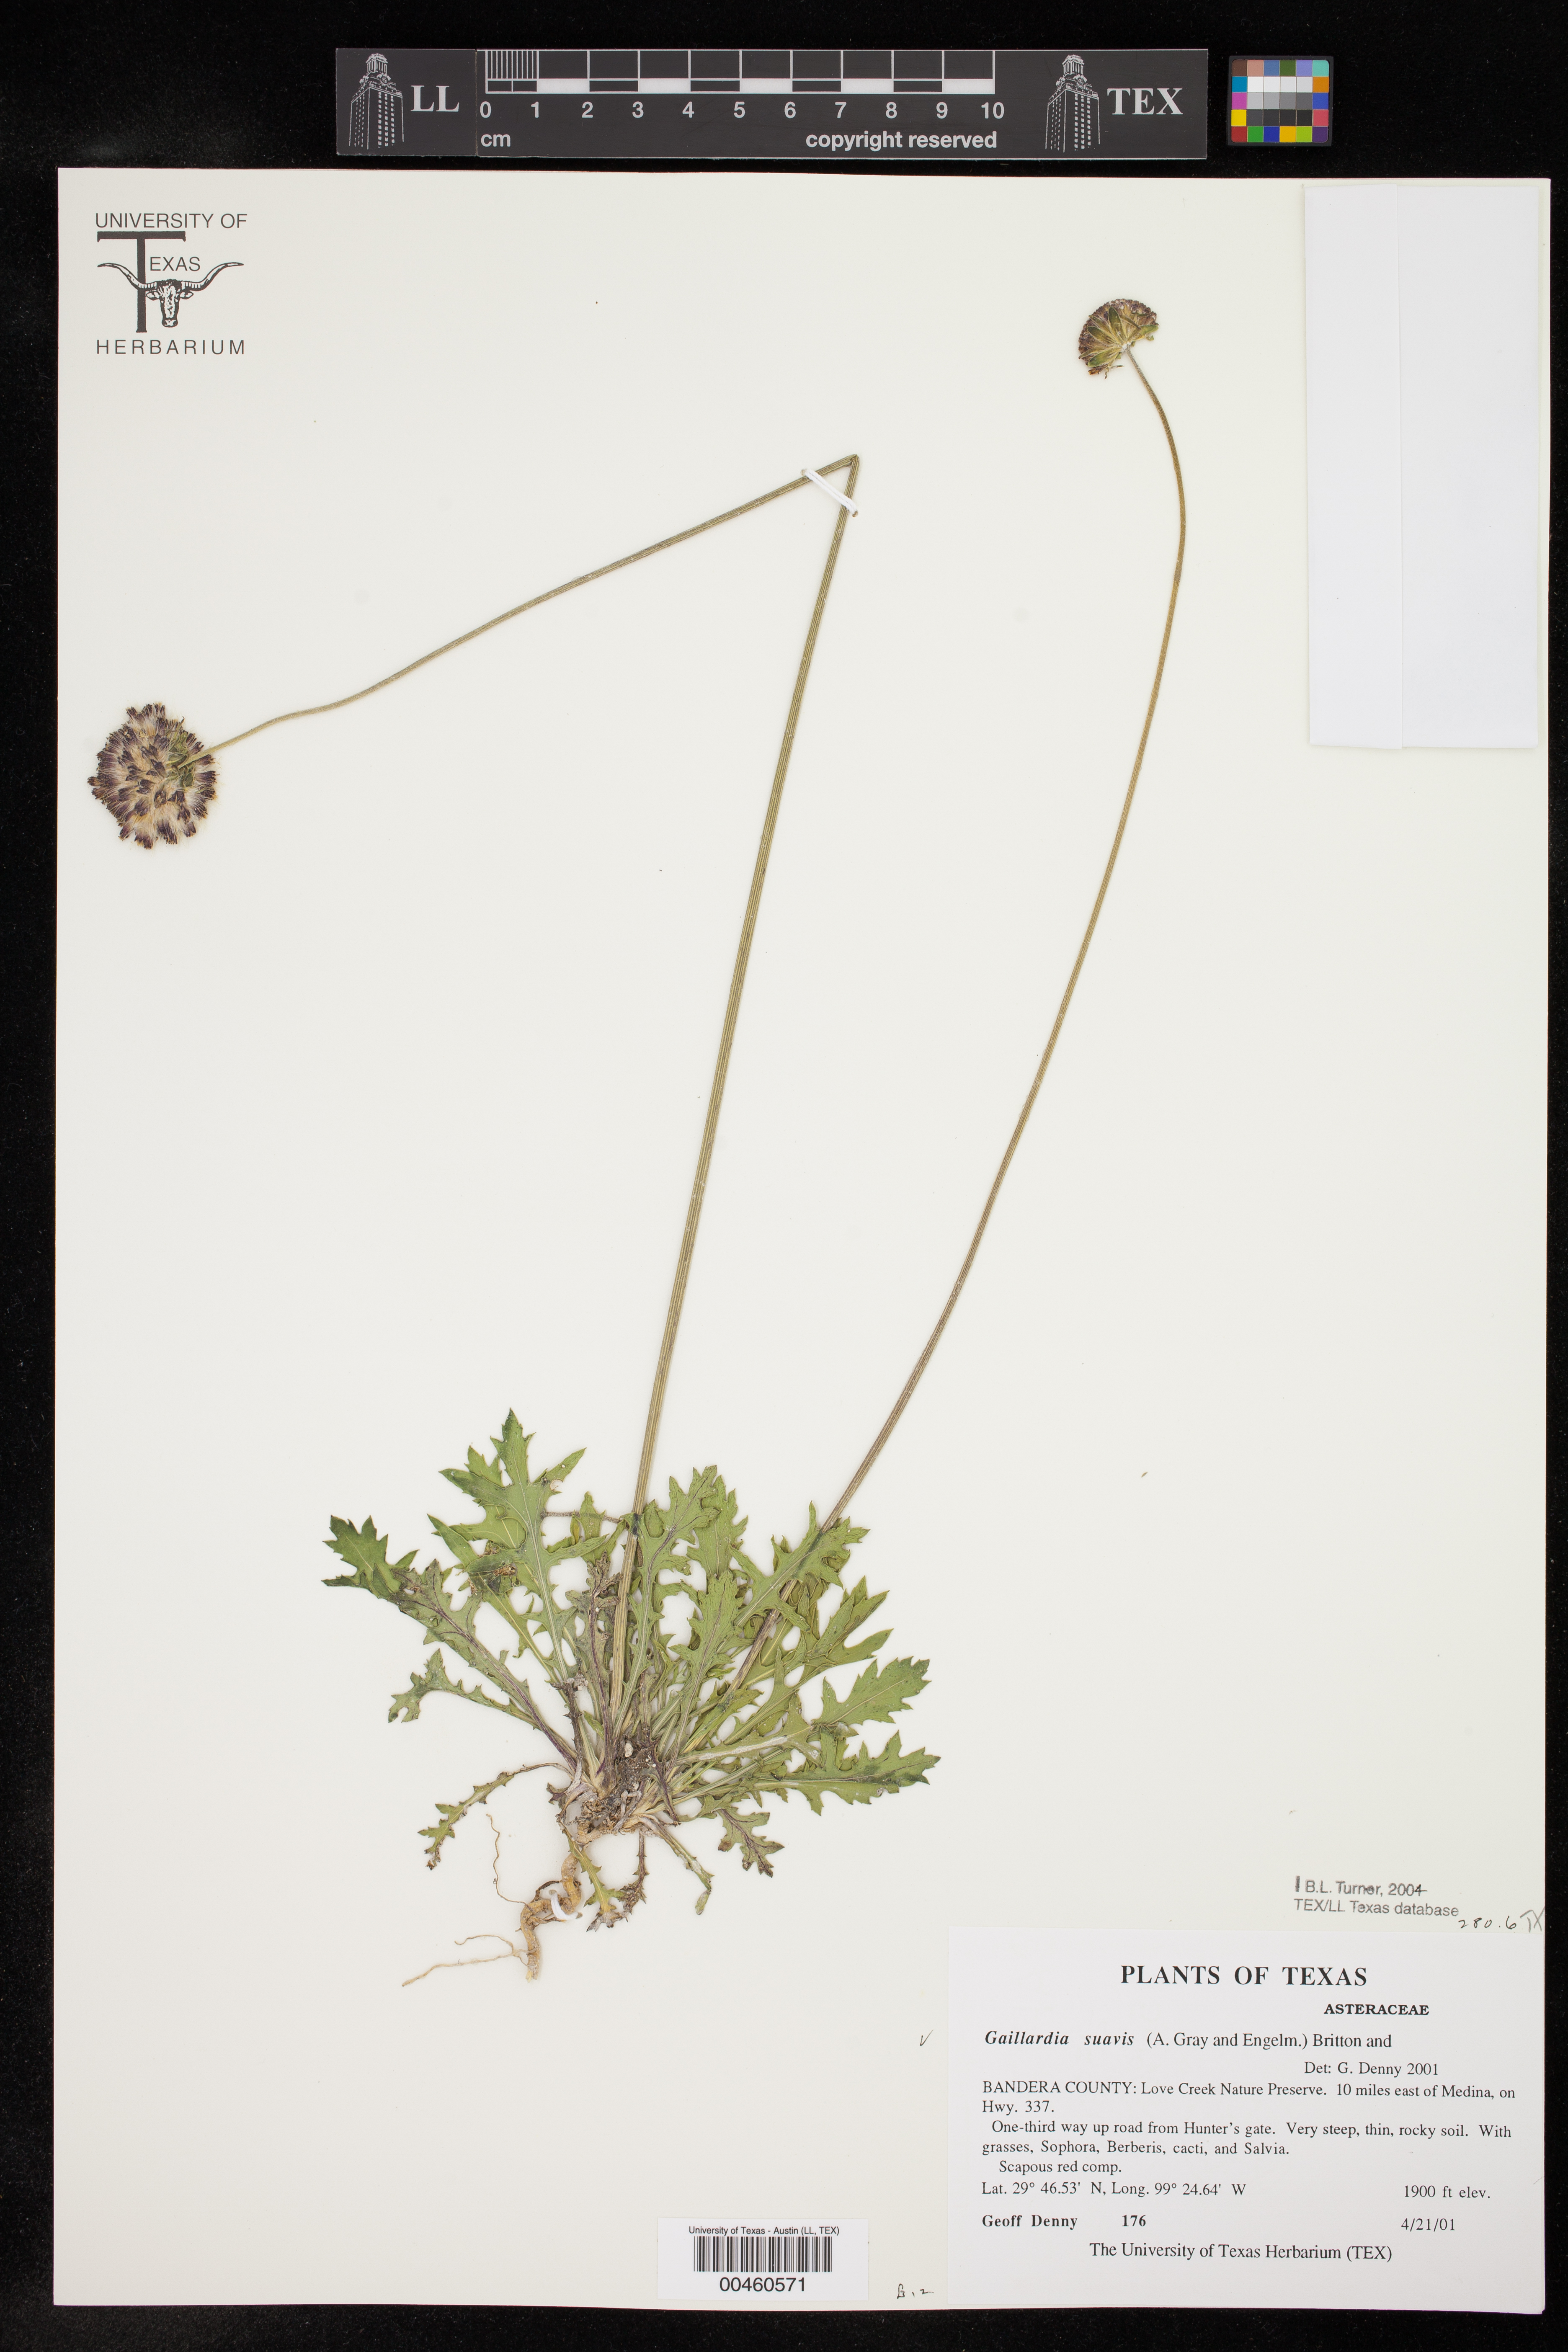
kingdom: Plantae
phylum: Tracheophyta
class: Magnoliopsida
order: Asterales
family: Asteraceae
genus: Gaillardia
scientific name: Gaillardia suavis
